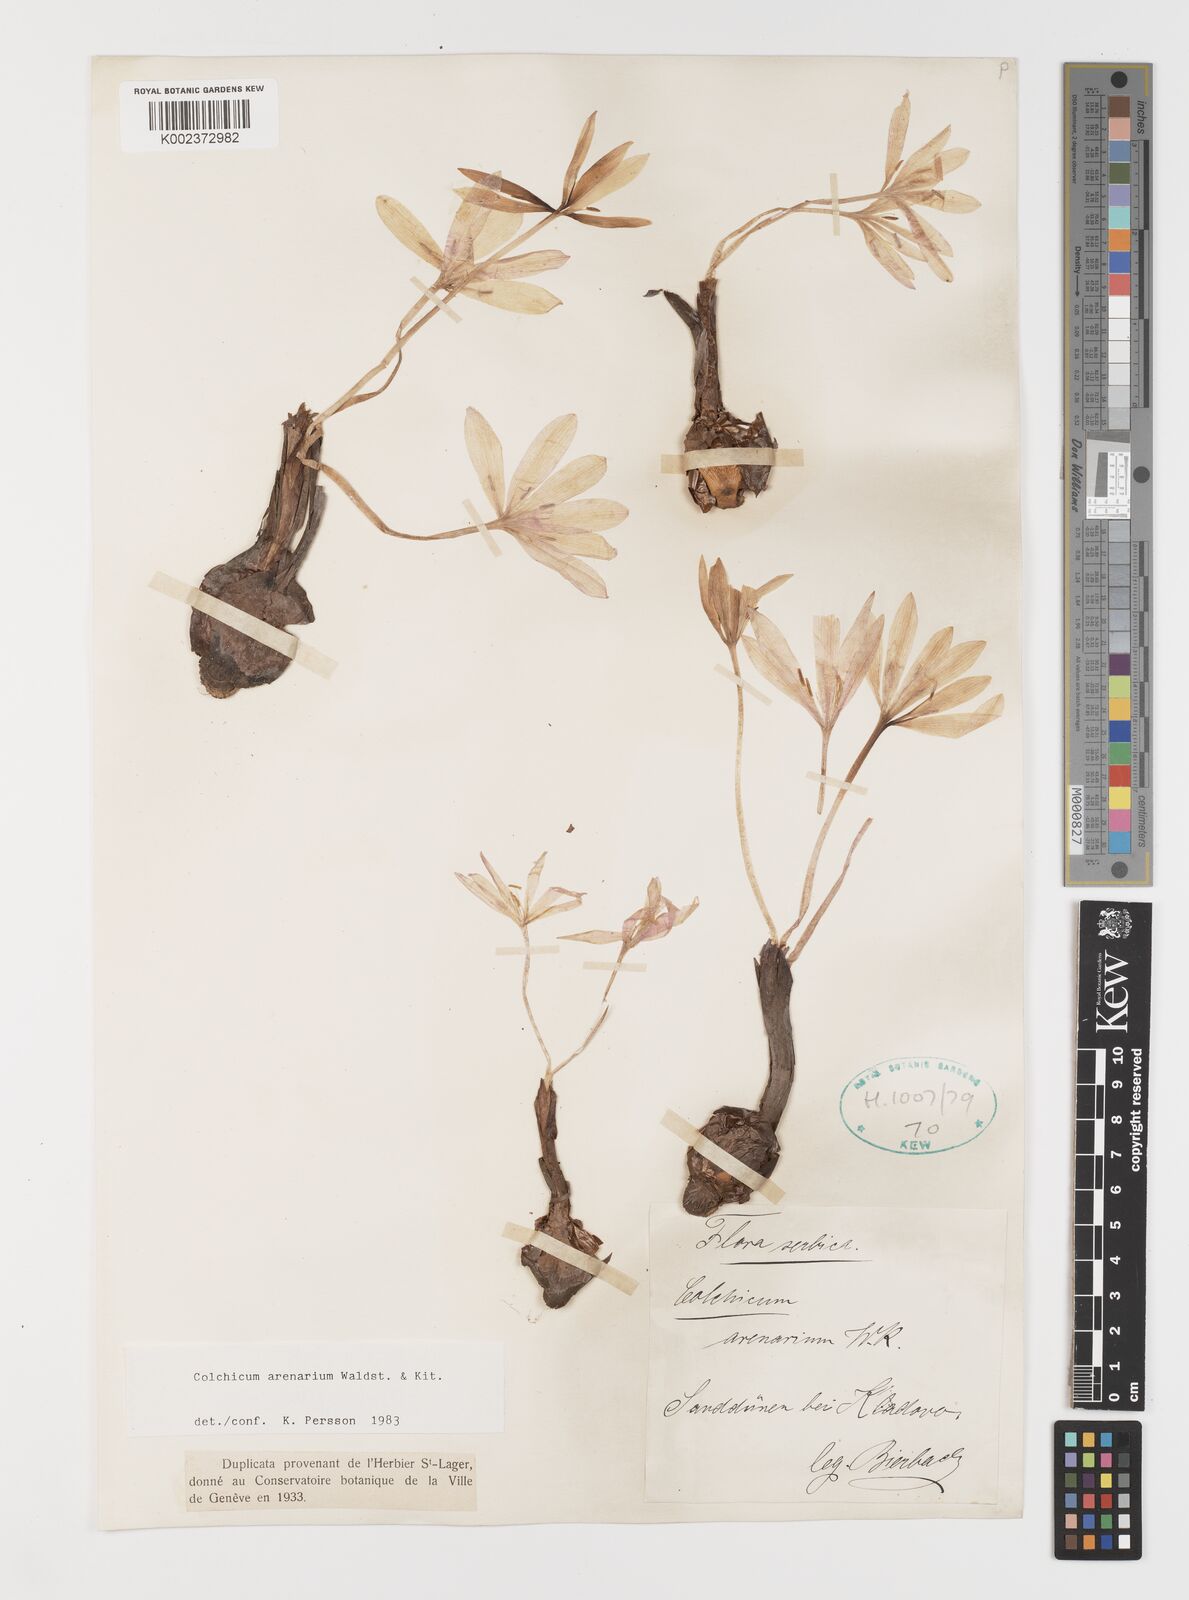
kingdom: Plantae
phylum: Tracheophyta
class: Liliopsida
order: Liliales
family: Colchicaceae
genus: Colchicum
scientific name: Colchicum arenarium
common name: Sand saffron
